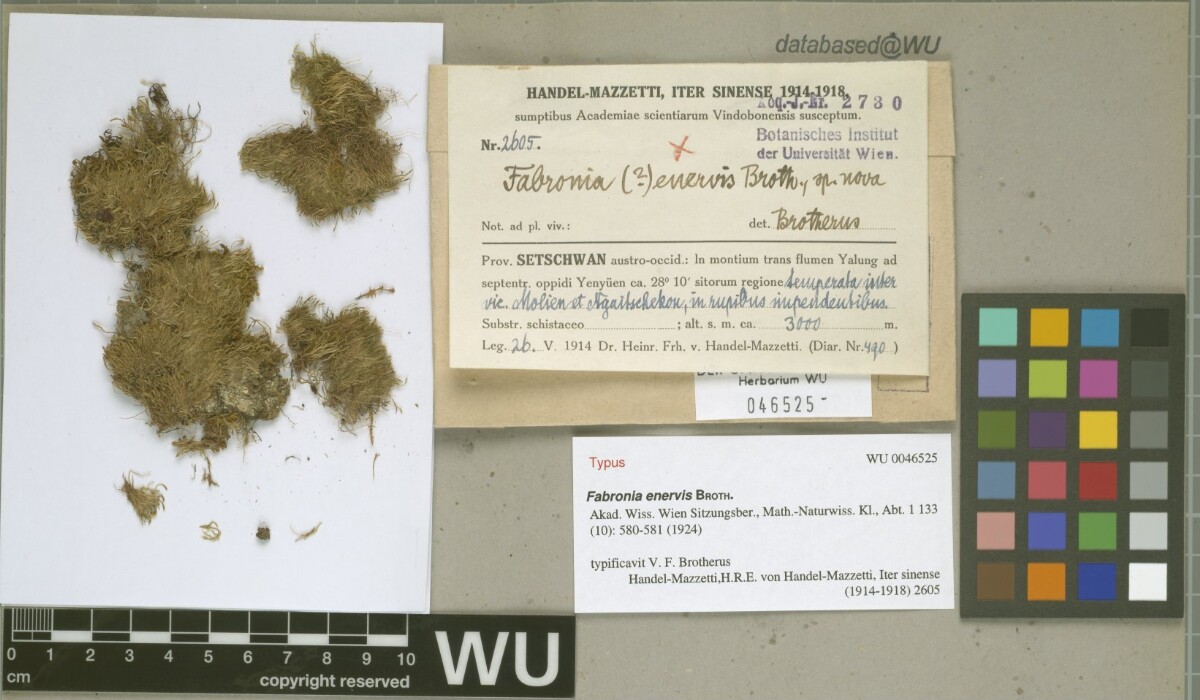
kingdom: Plantae
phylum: Bryophyta
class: Bryopsida
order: Hypnales
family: Plagiotheciaceae
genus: Struckia
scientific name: Struckia enervis
